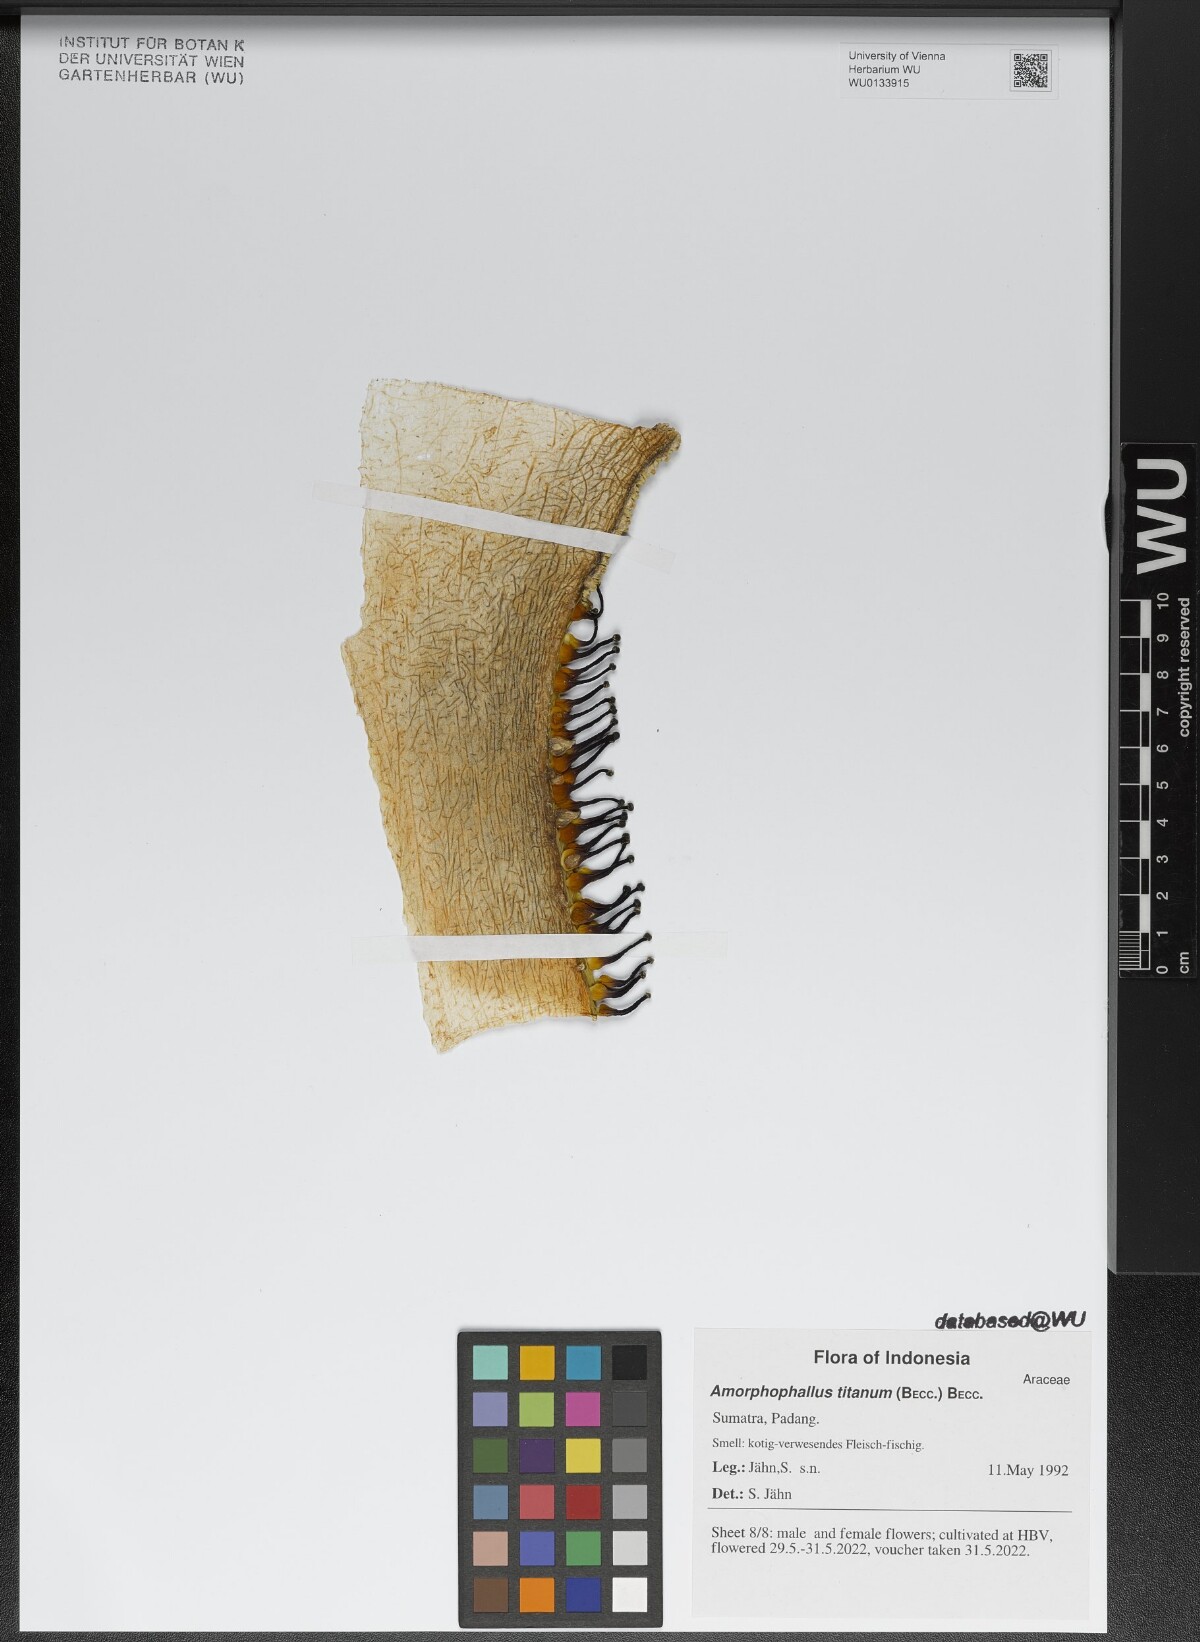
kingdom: Plantae
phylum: Tracheophyta
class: Liliopsida
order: Alismatales
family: Araceae
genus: Amorphophallus
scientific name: Amorphophallus titanum
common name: Titan arum
